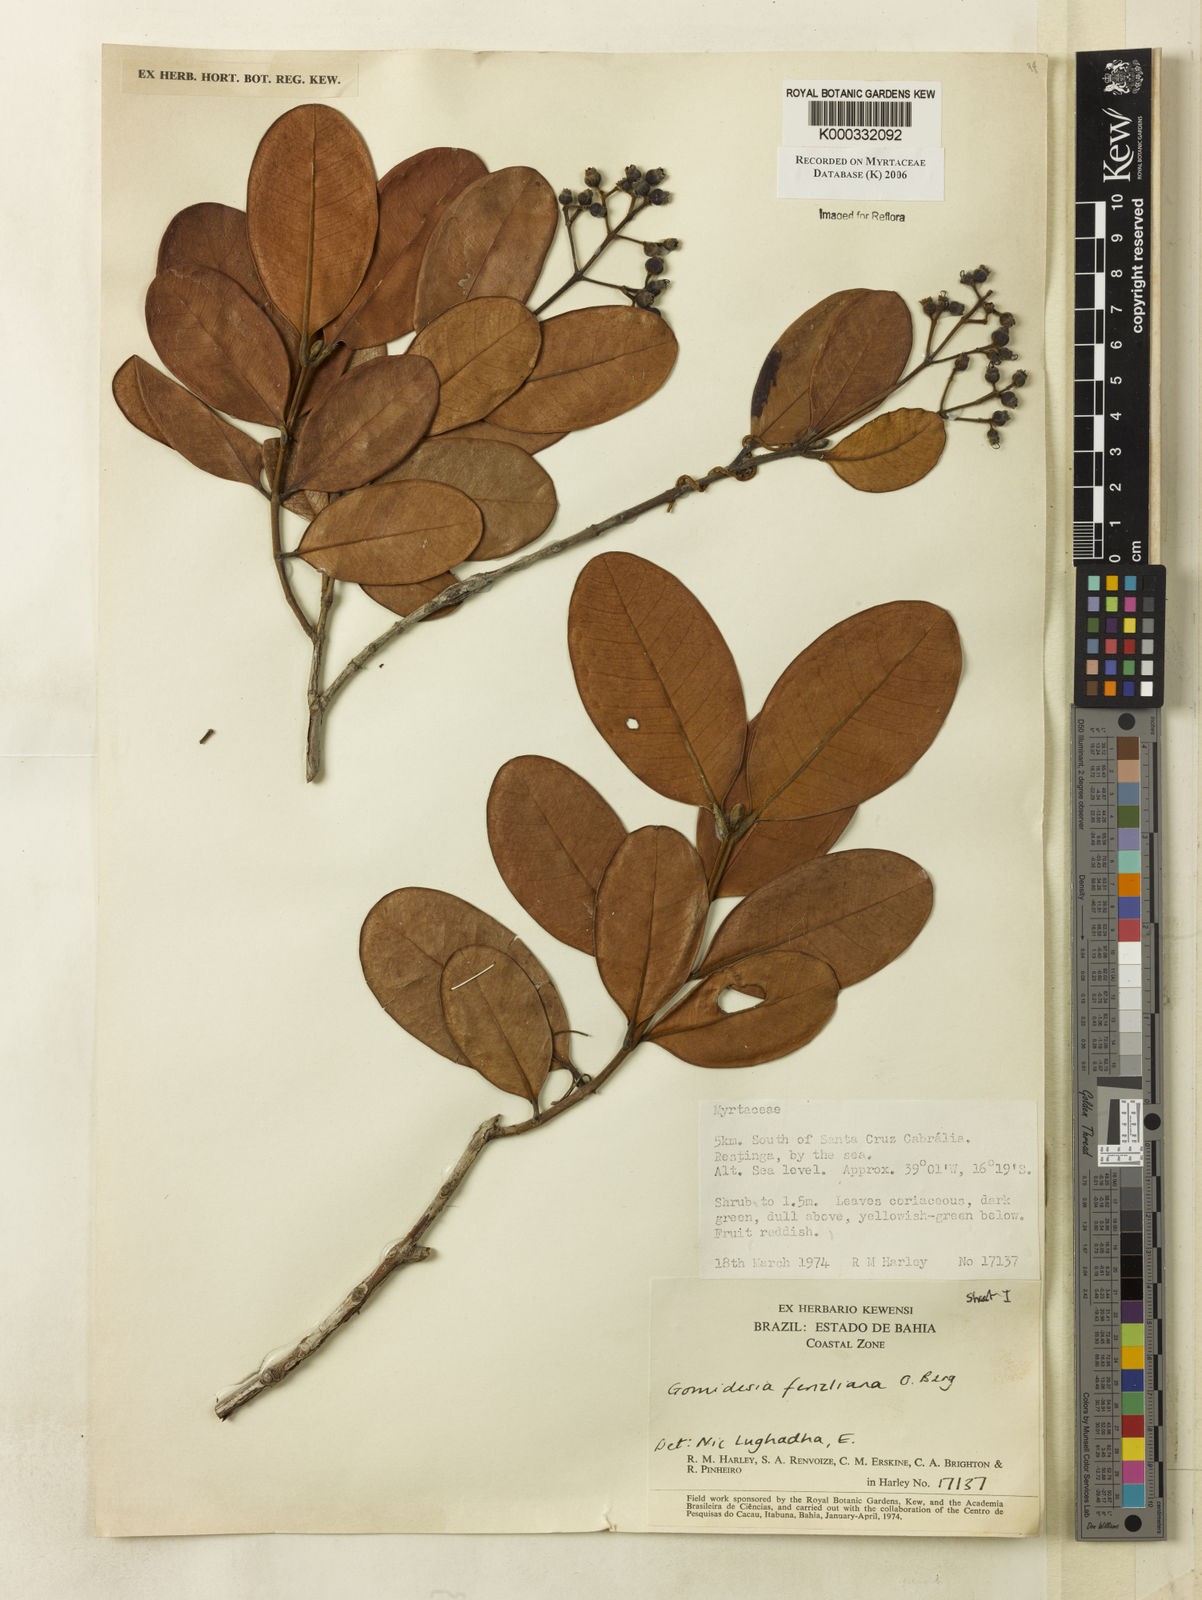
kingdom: Plantae
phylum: Tracheophyta
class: Magnoliopsida
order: Myrtales
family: Myrtaceae
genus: Myrcia
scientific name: Myrcia ilheosensis
